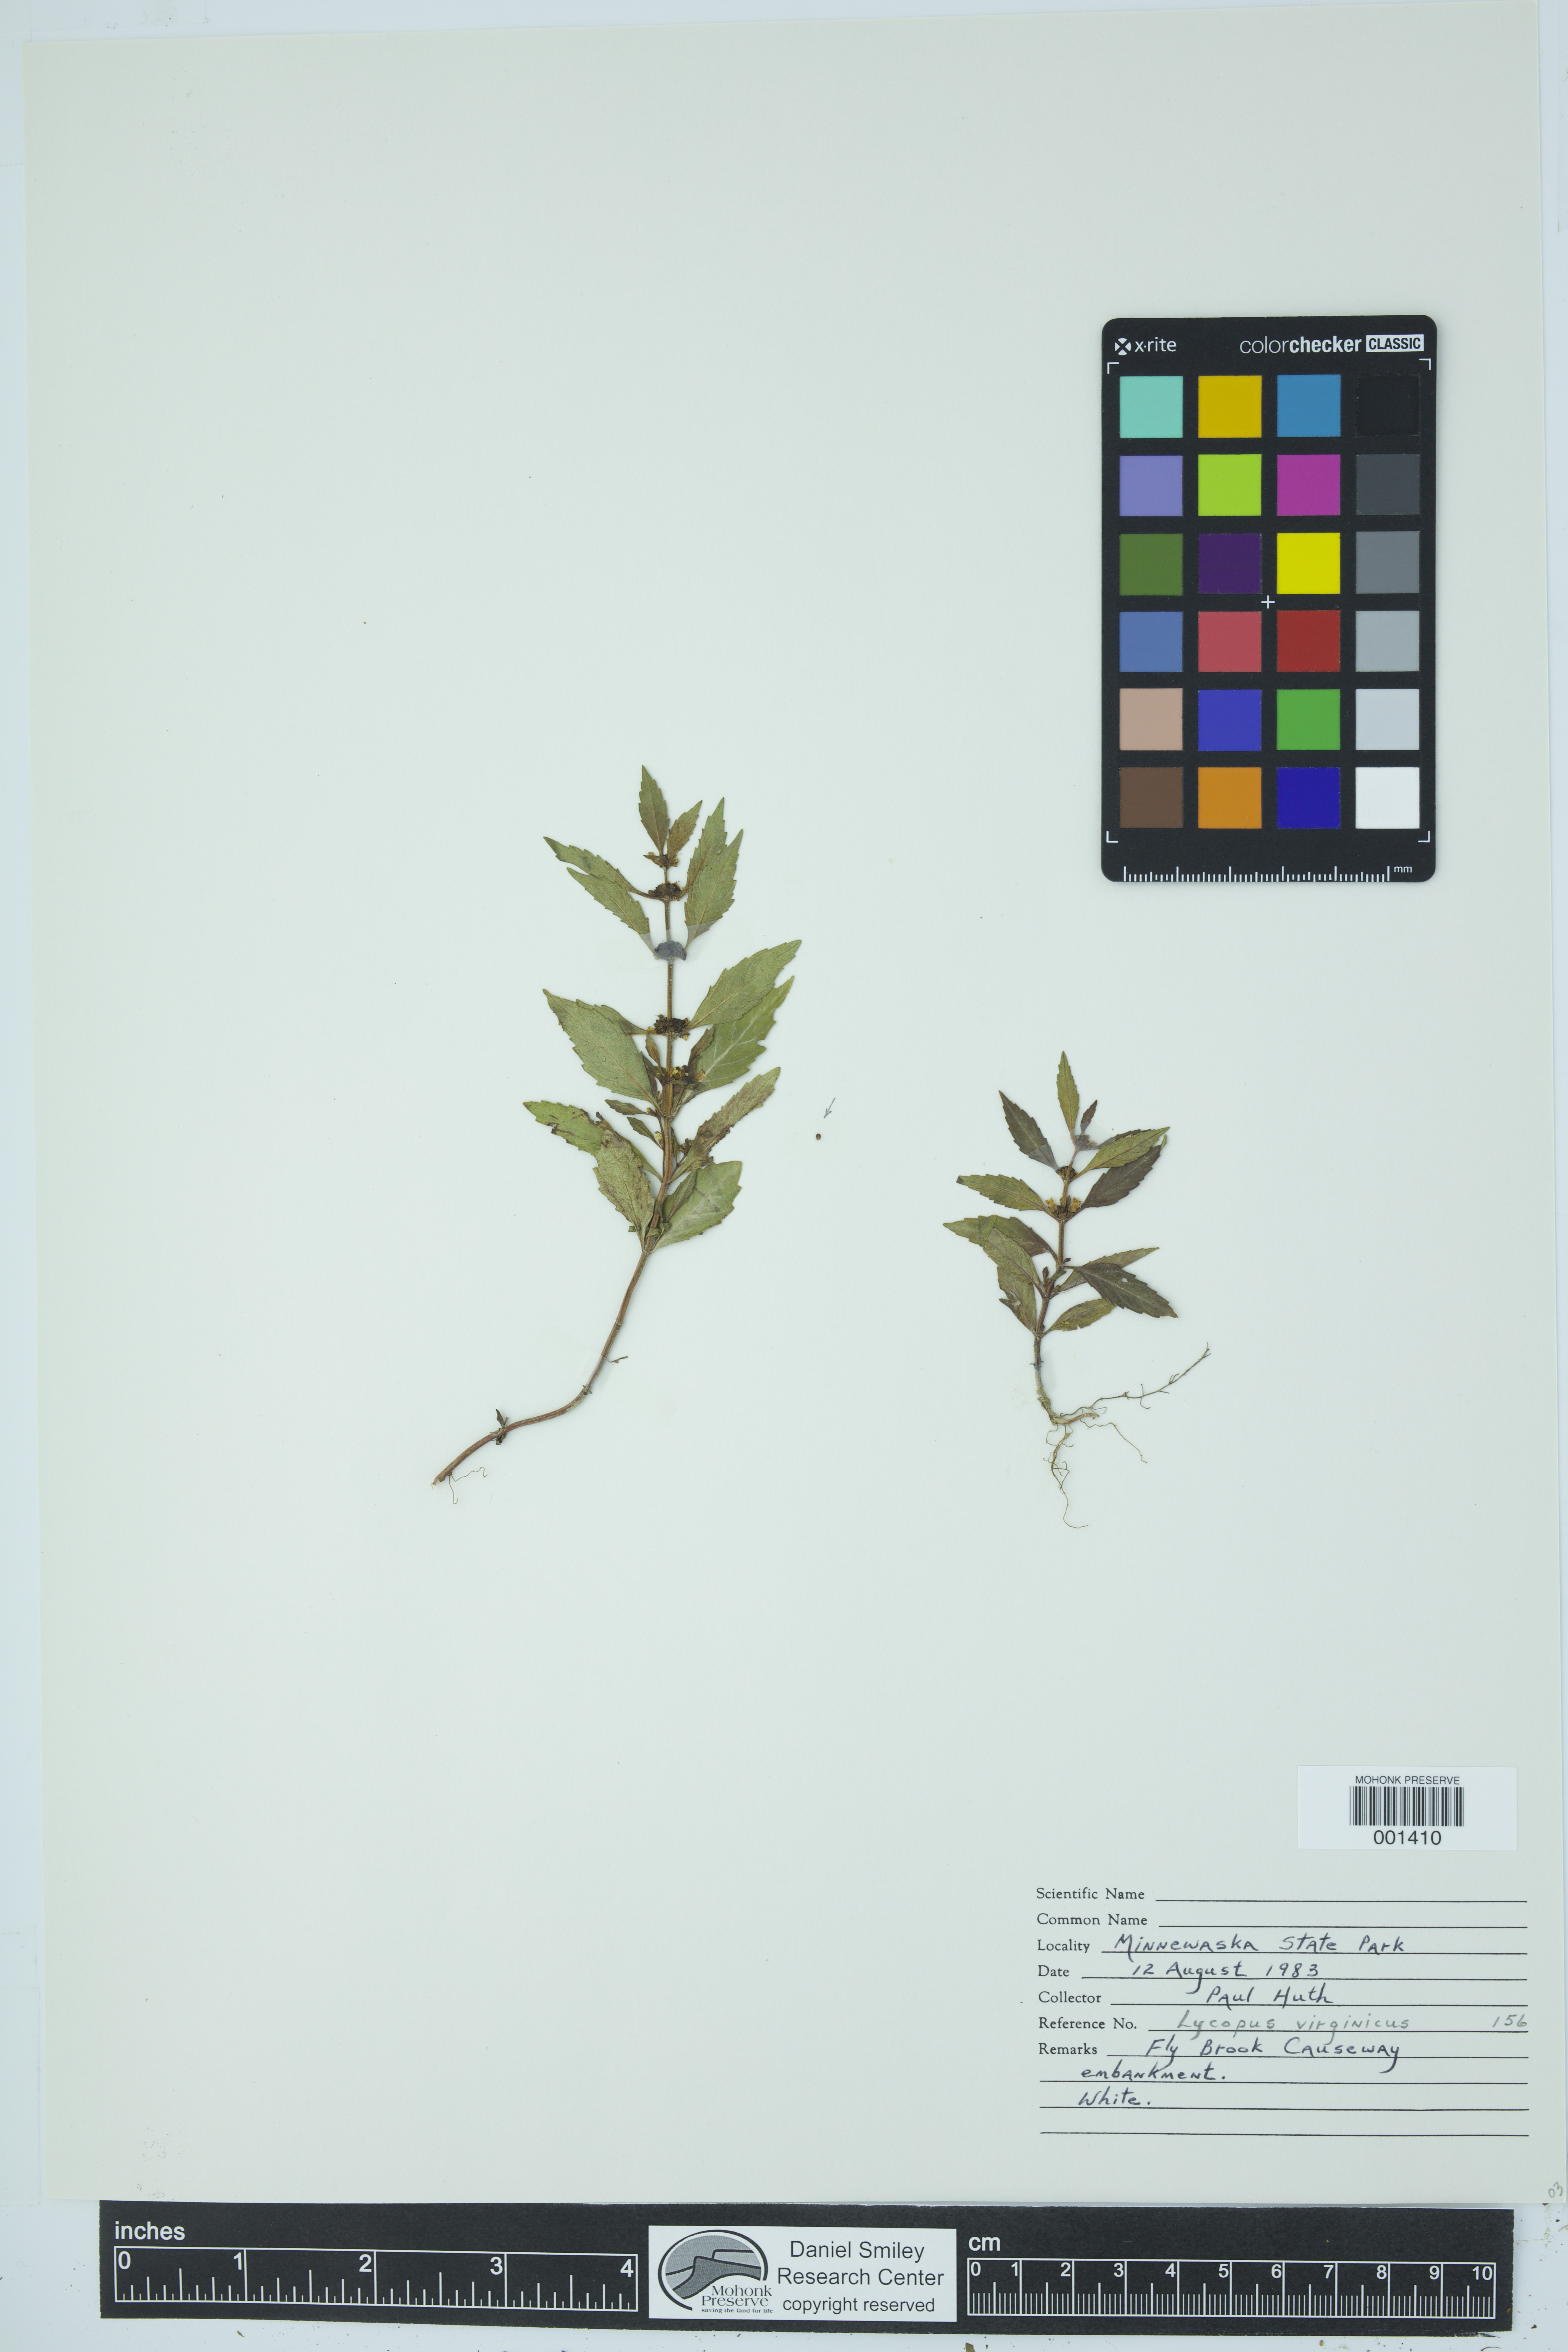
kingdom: Plantae
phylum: Tracheophyta
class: Magnoliopsida
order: Lamiales
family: Lamiaceae
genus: Lycopus
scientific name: Lycopus virginicus
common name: Bugleweed
